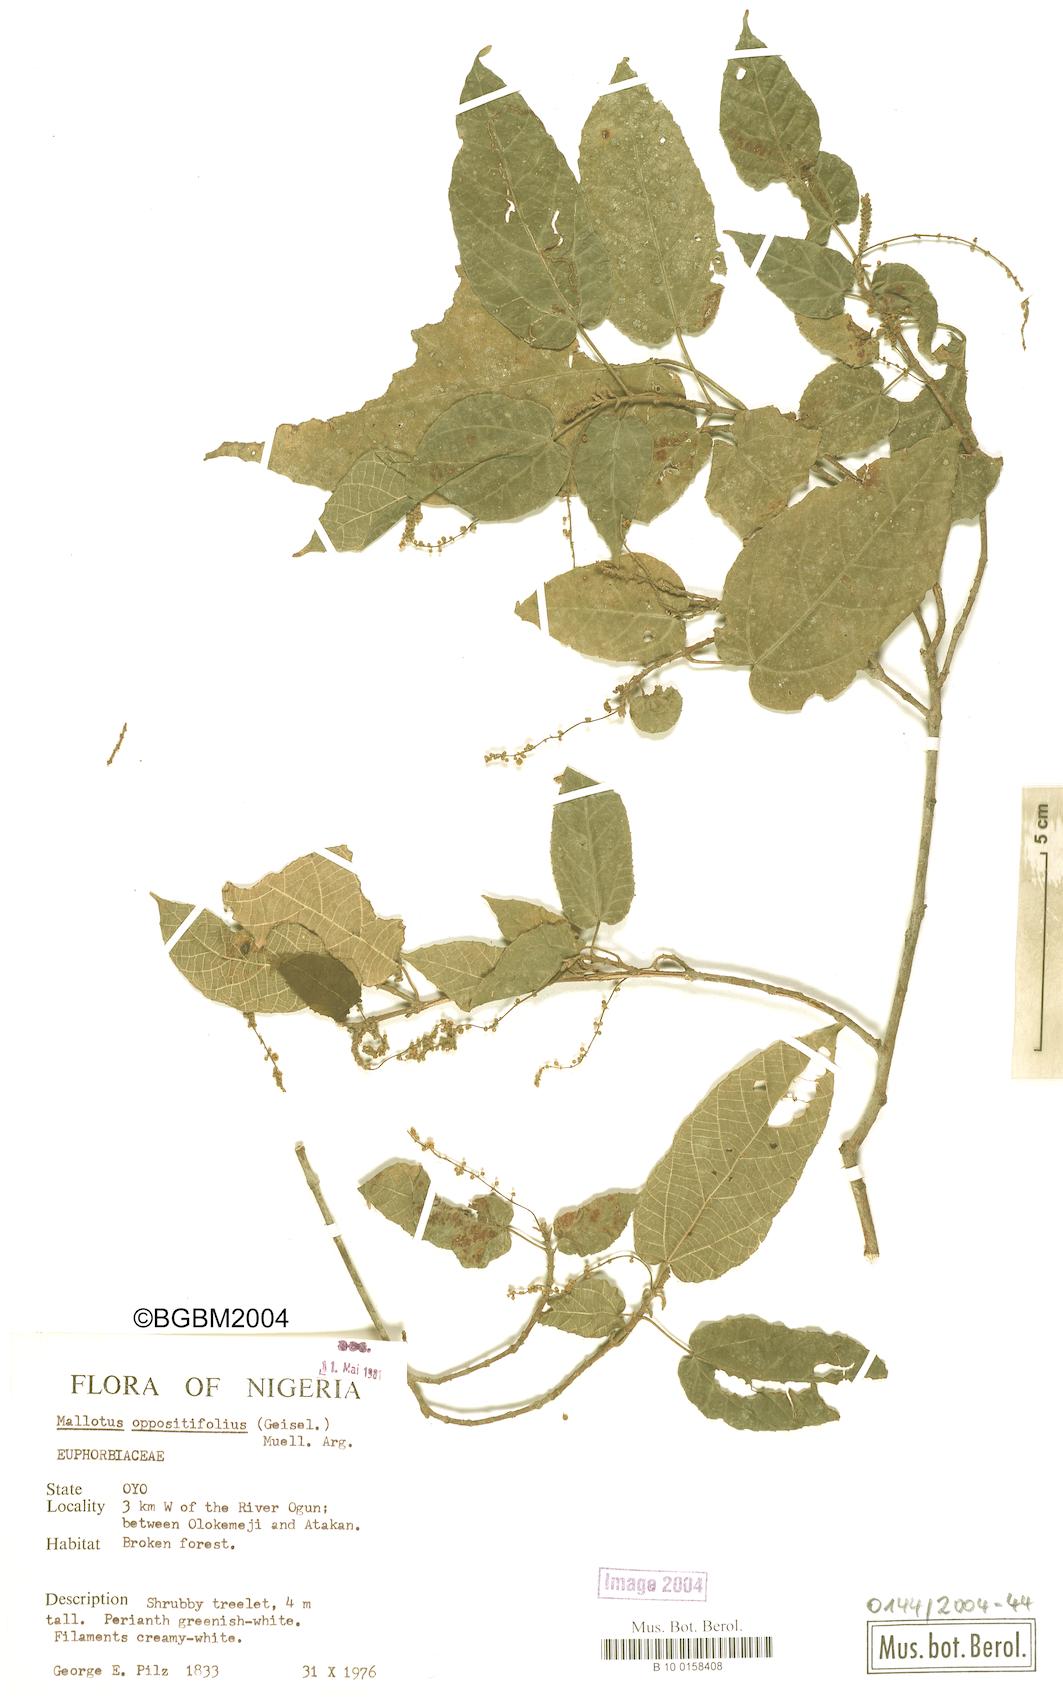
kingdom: Plantae
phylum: Tracheophyta
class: Magnoliopsida
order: Malpighiales
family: Euphorbiaceae
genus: Mallotus
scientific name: Mallotus oppositifolius
